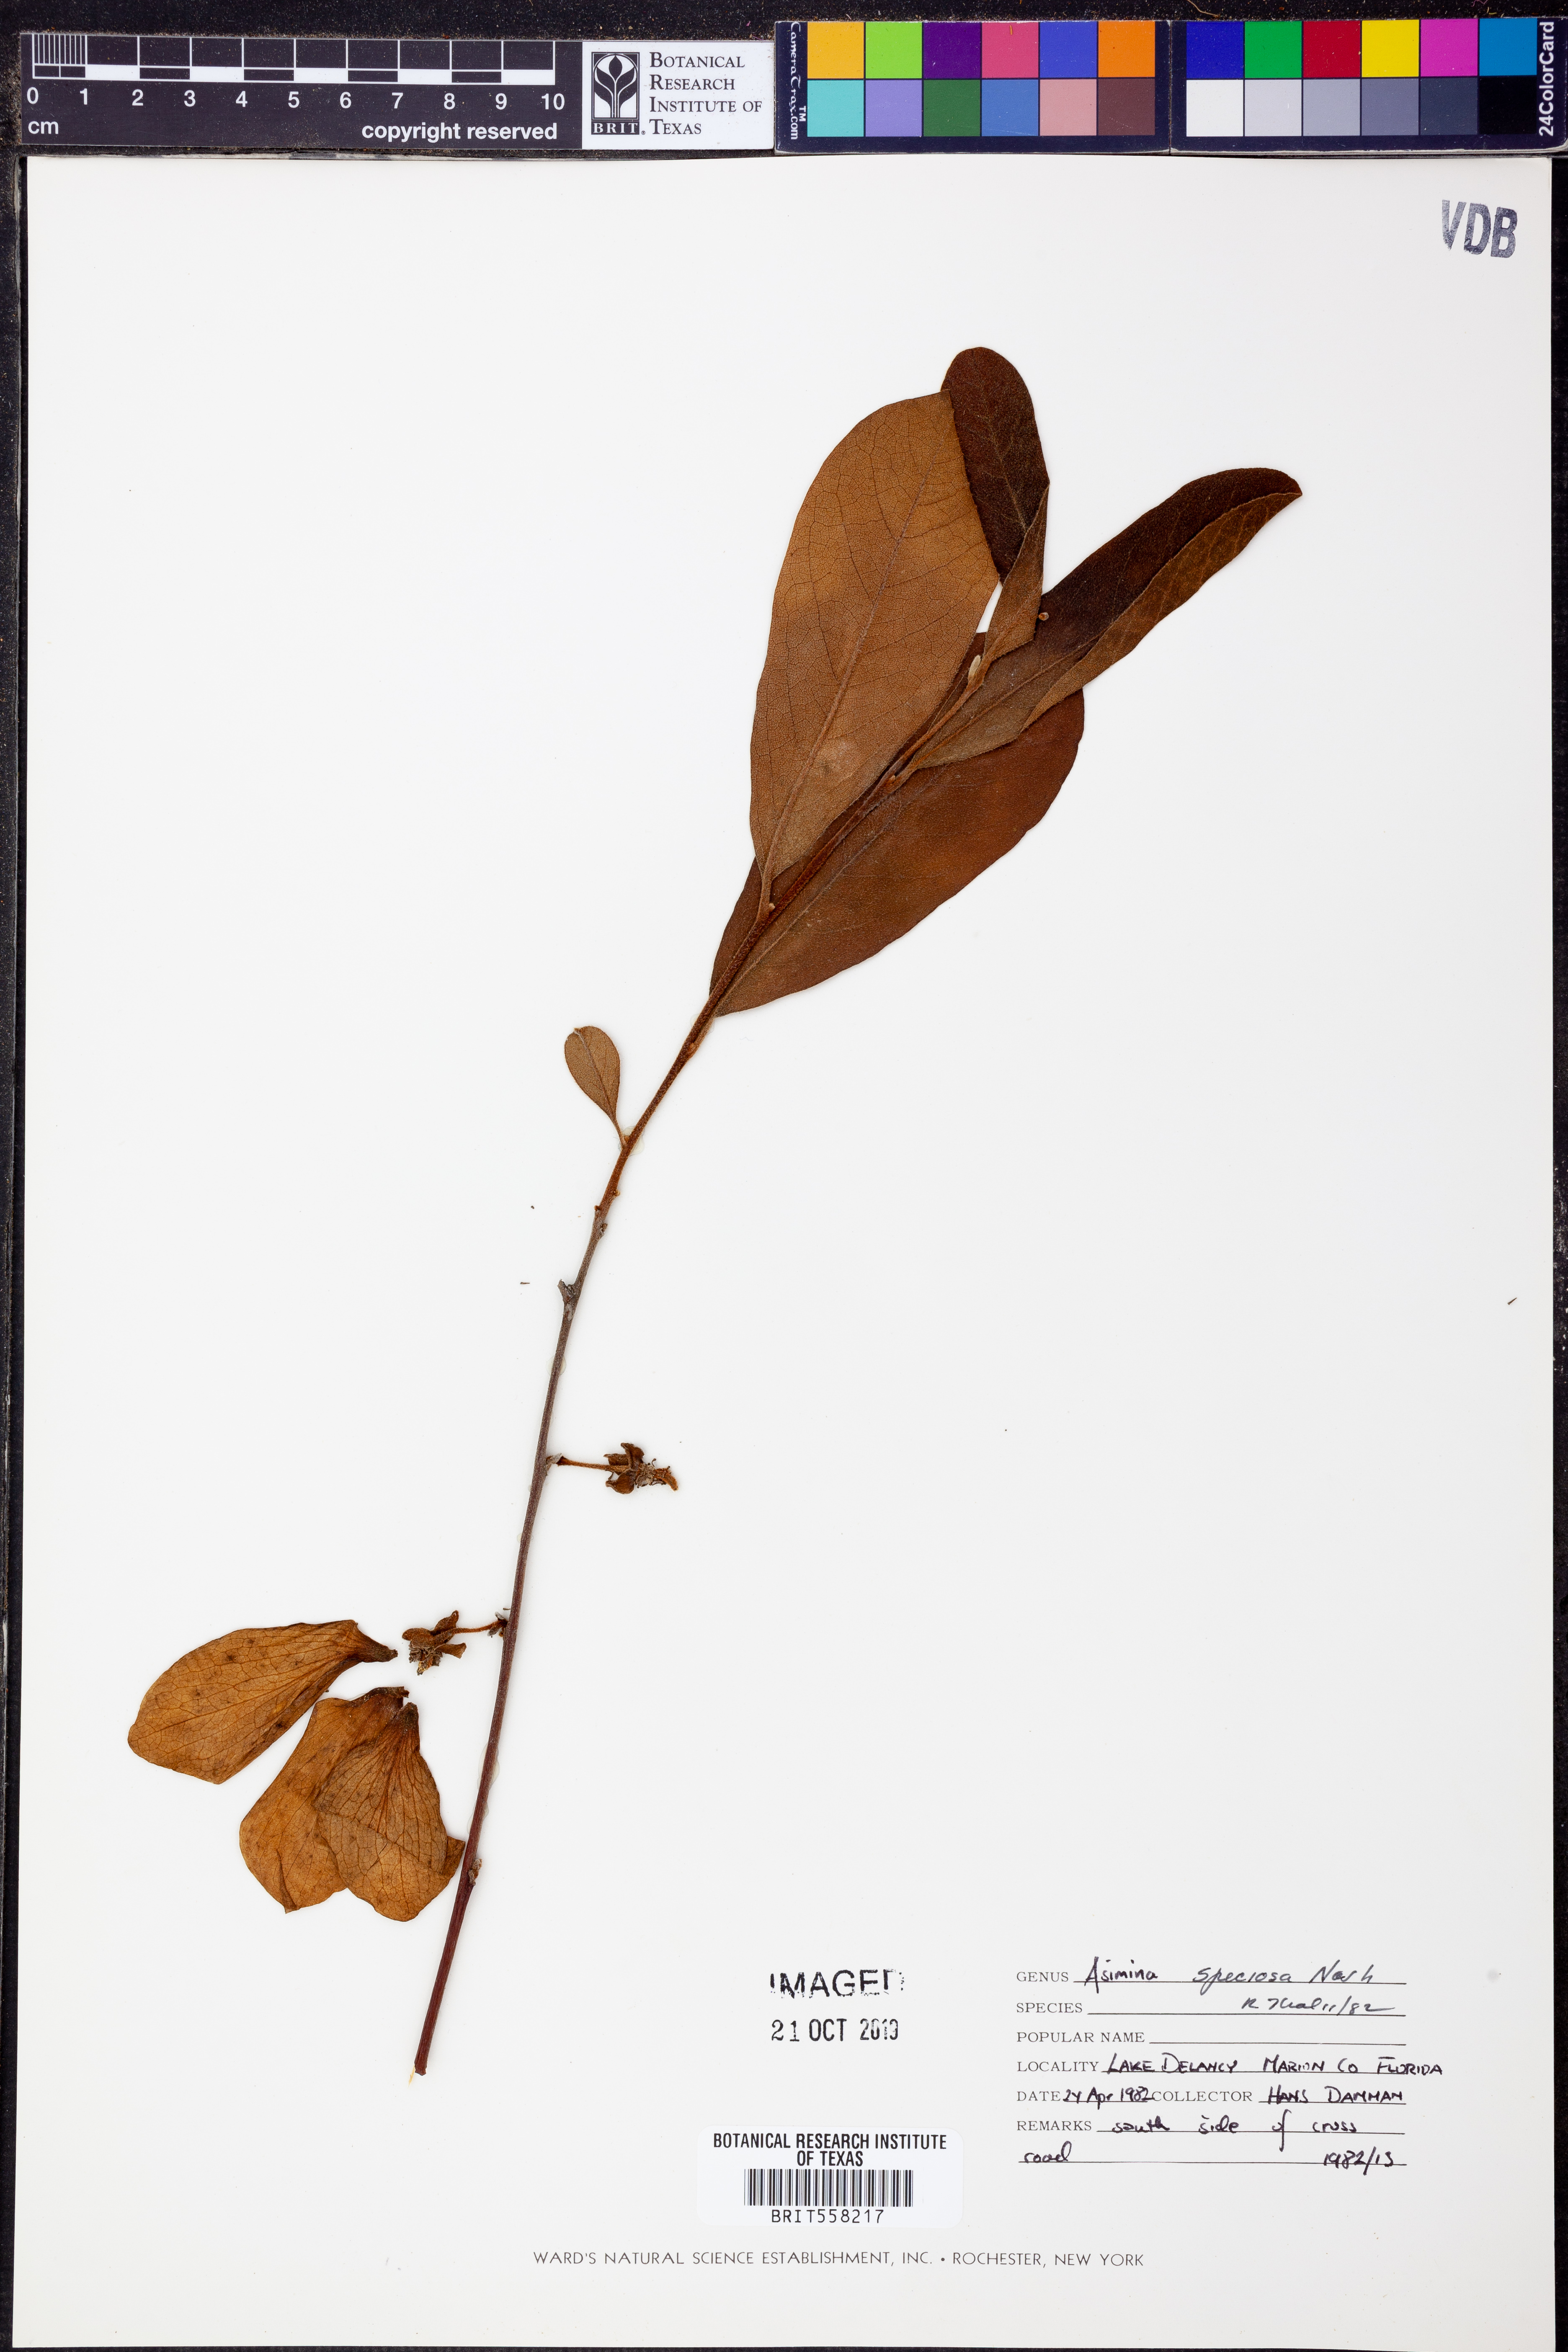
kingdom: Plantae
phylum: Tracheophyta
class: Magnoliopsida
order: Magnoliales
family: Annonaceae
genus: Asimina
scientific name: Asimina speciosa
